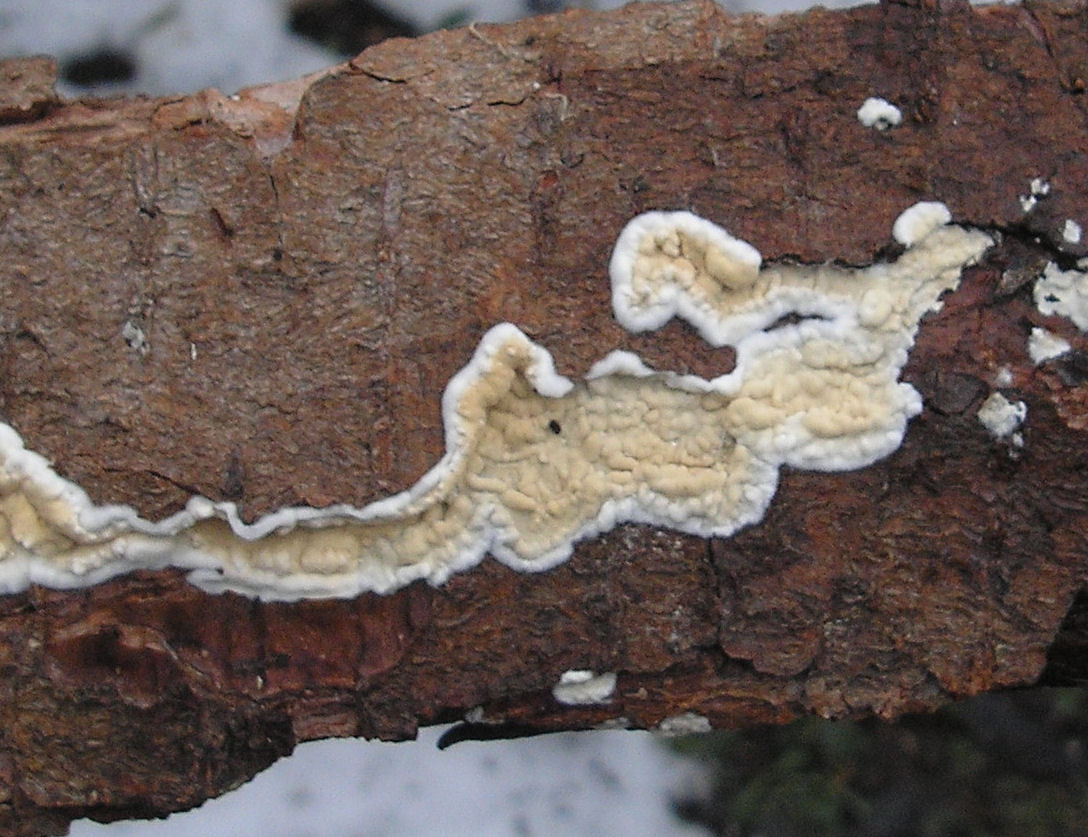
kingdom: Fungi
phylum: Basidiomycota
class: Agaricomycetes
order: Agaricales
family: Physalacriaceae
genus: Cylindrobasidium
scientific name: Cylindrobasidium evolvens
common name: sprækkehinde
